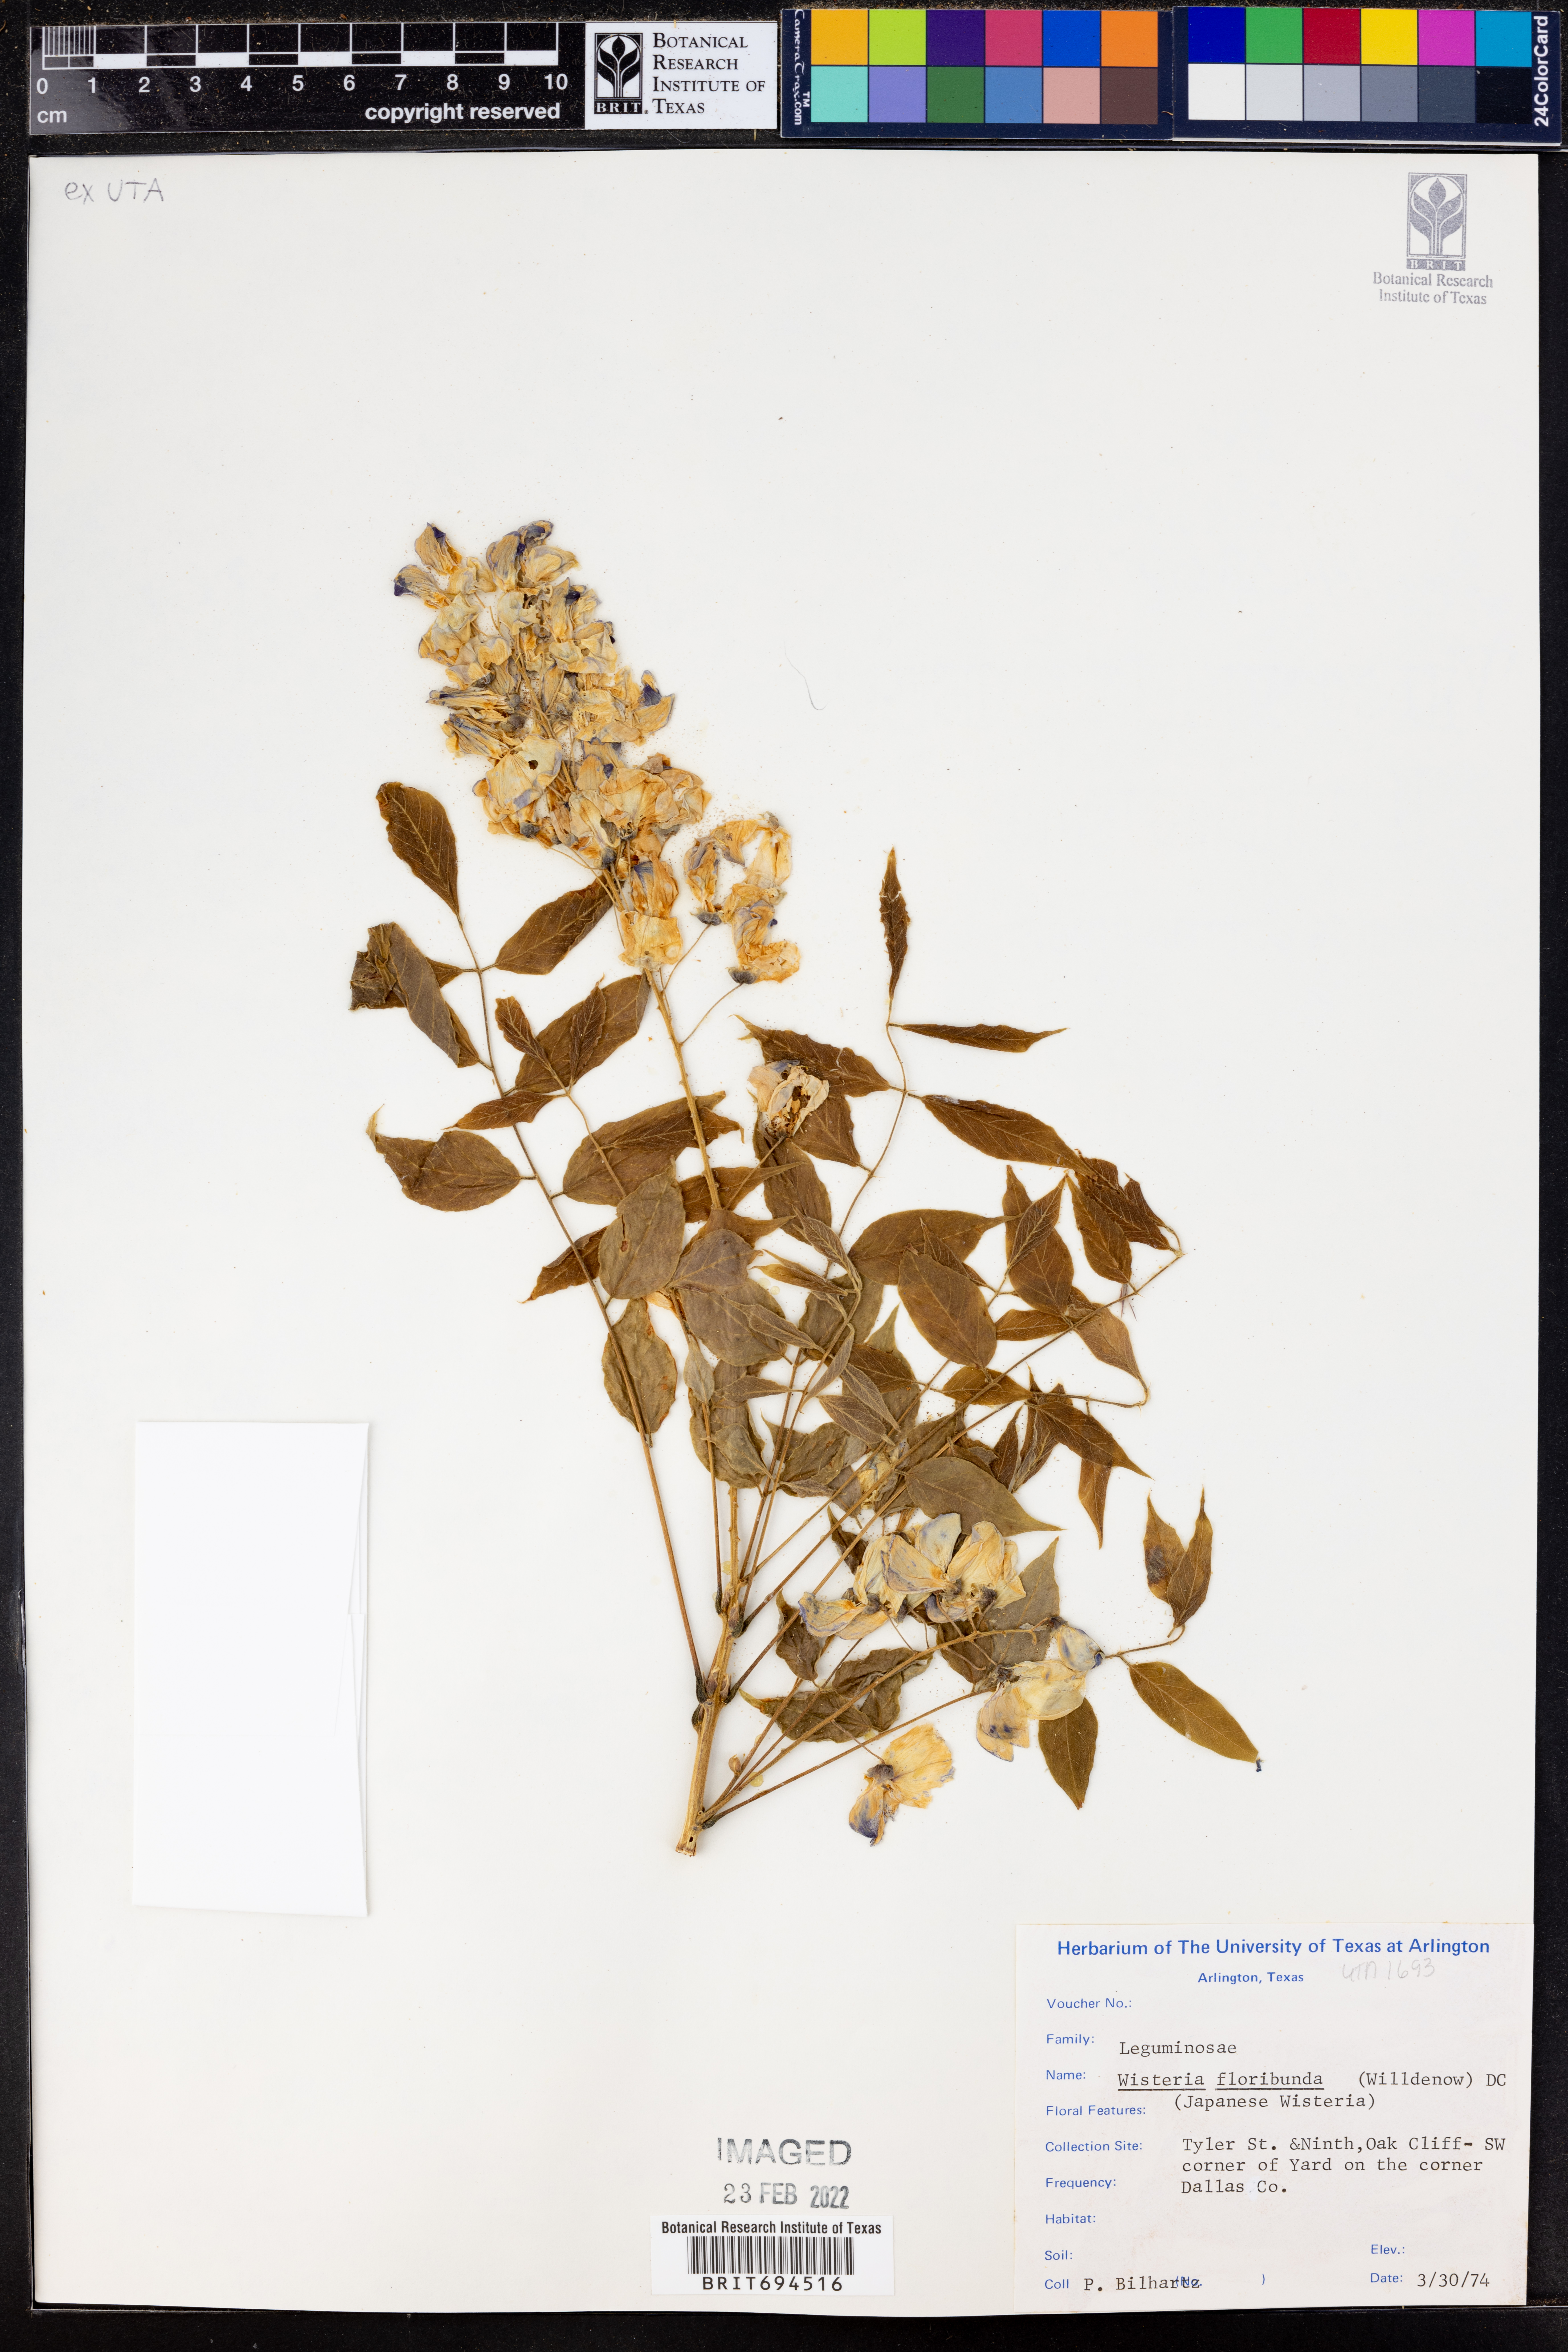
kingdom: Plantae
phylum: Tracheophyta
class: Magnoliopsida
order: Fabales
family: Fabaceae
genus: Wisteria
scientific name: Wisteria floribunda
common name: Japanese wisteria
